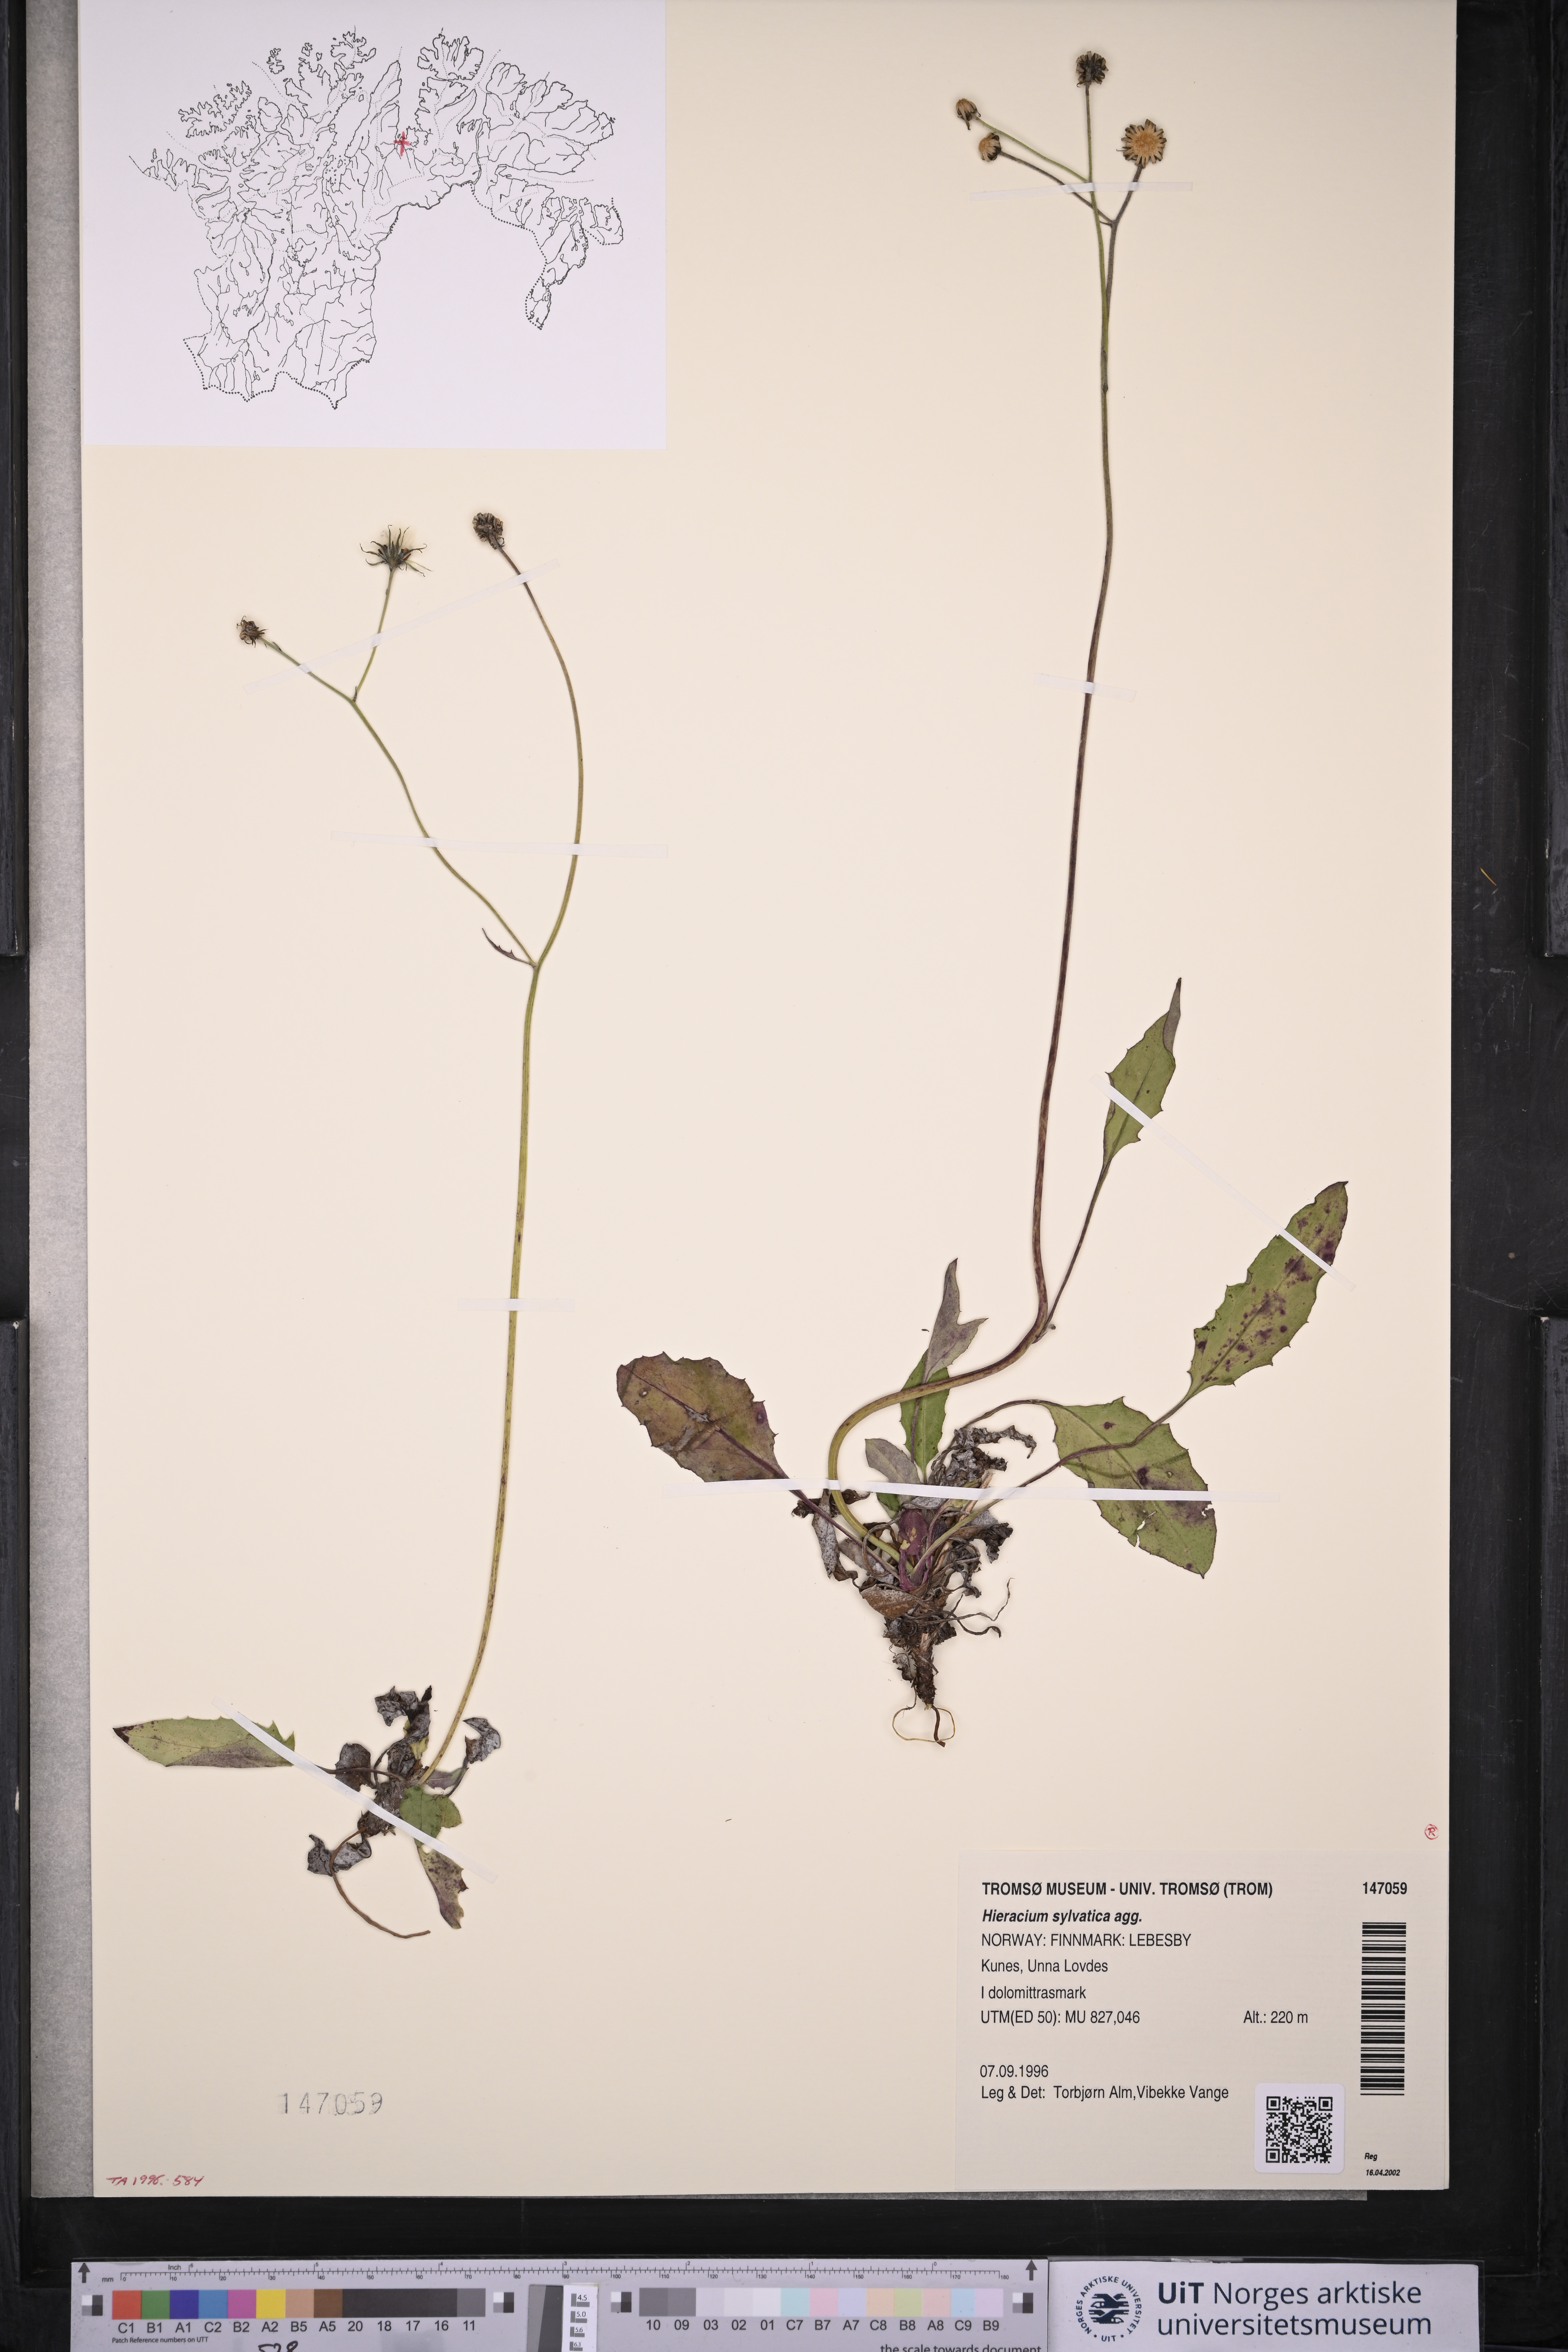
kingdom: Plantae
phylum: Tracheophyta
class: Magnoliopsida
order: Asterales
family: Asteraceae
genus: Hieracium
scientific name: Hieracium
